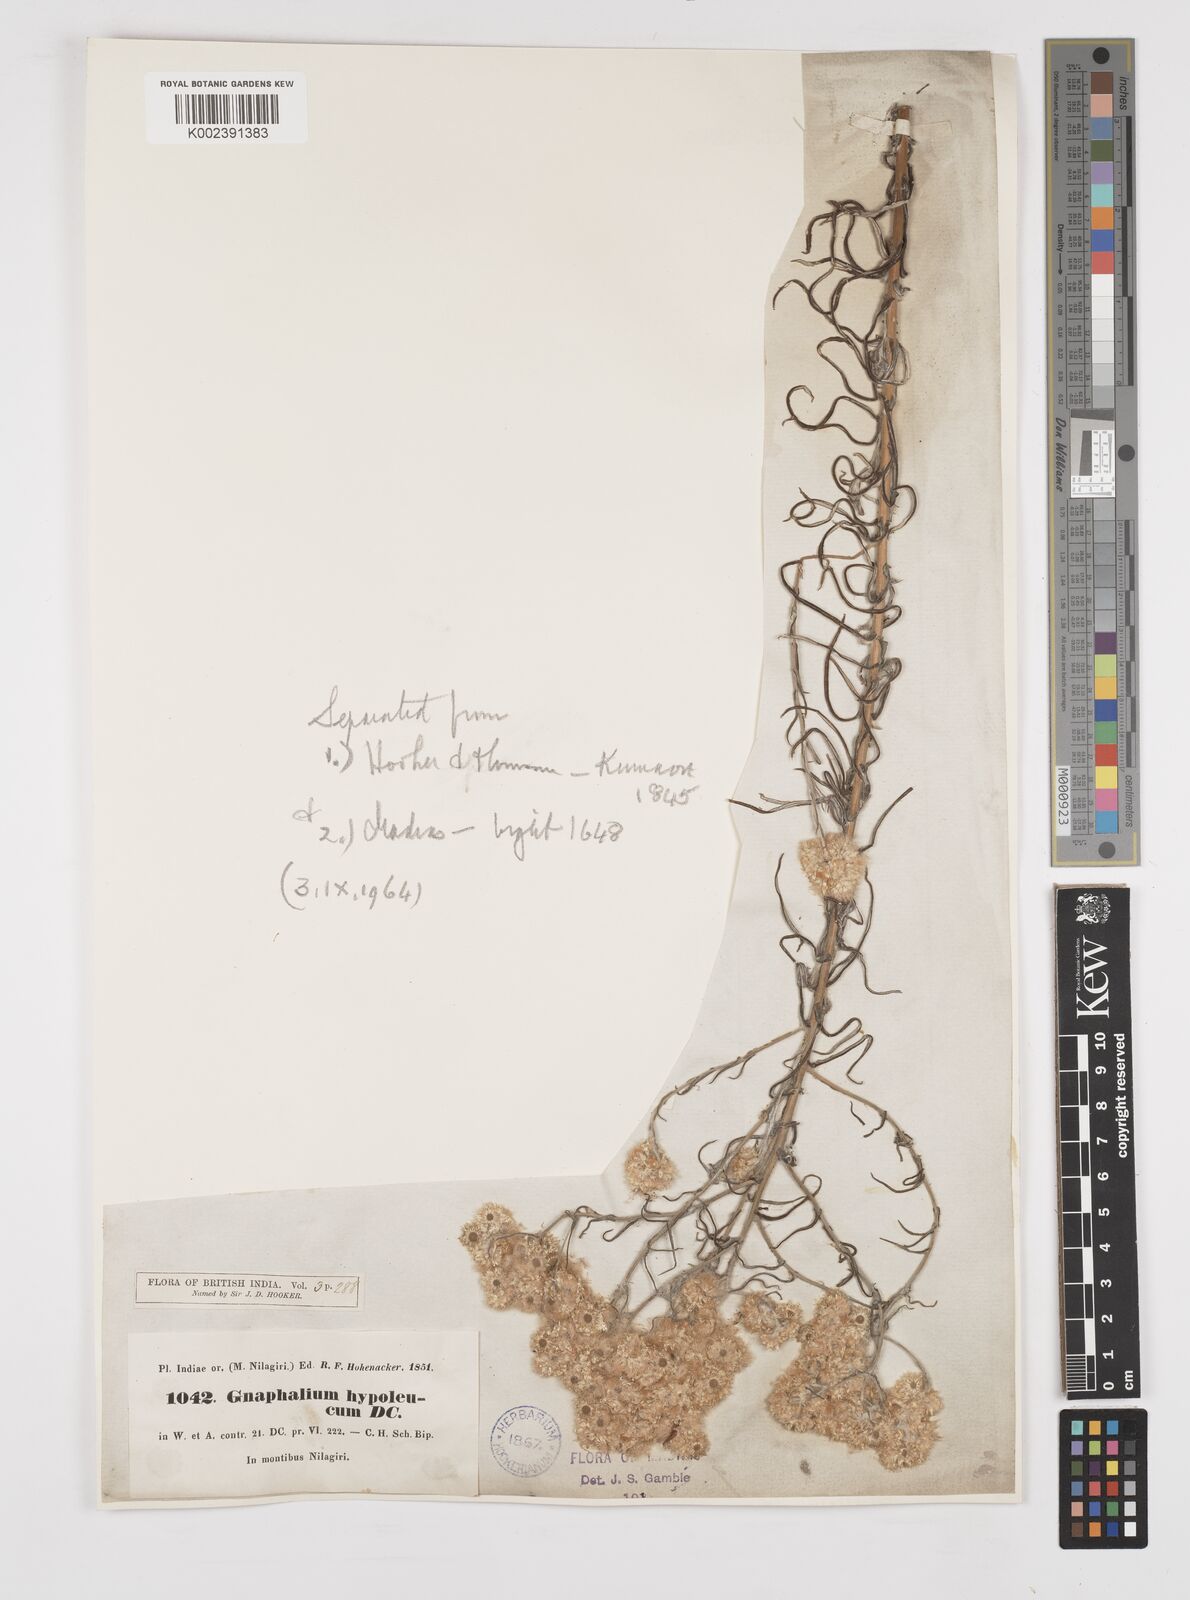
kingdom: Plantae
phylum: Tracheophyta
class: Magnoliopsida
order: Asterales
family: Asteraceae
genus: Pseudognaphalium
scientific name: Pseudognaphalium hypoleucum
